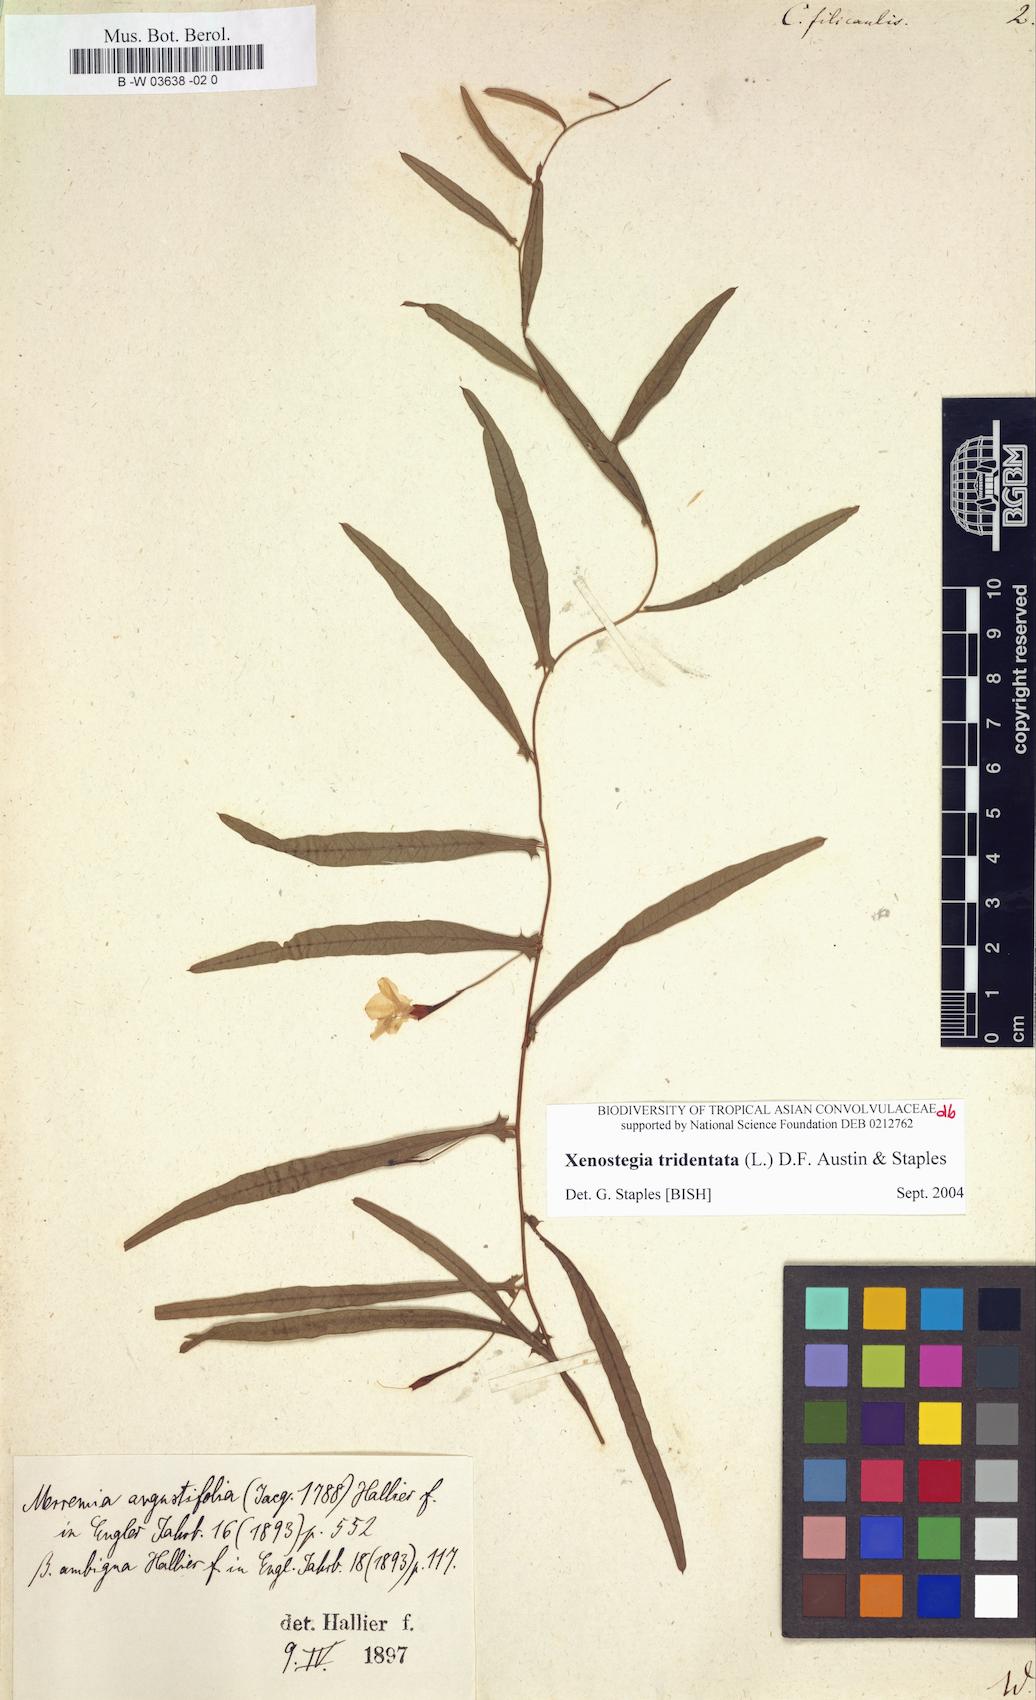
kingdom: Plantae
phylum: Tracheophyta
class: Magnoliopsida
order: Solanales
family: Convolvulaceae
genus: Xenostegia
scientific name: Xenostegia tridentata
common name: African morningvine
